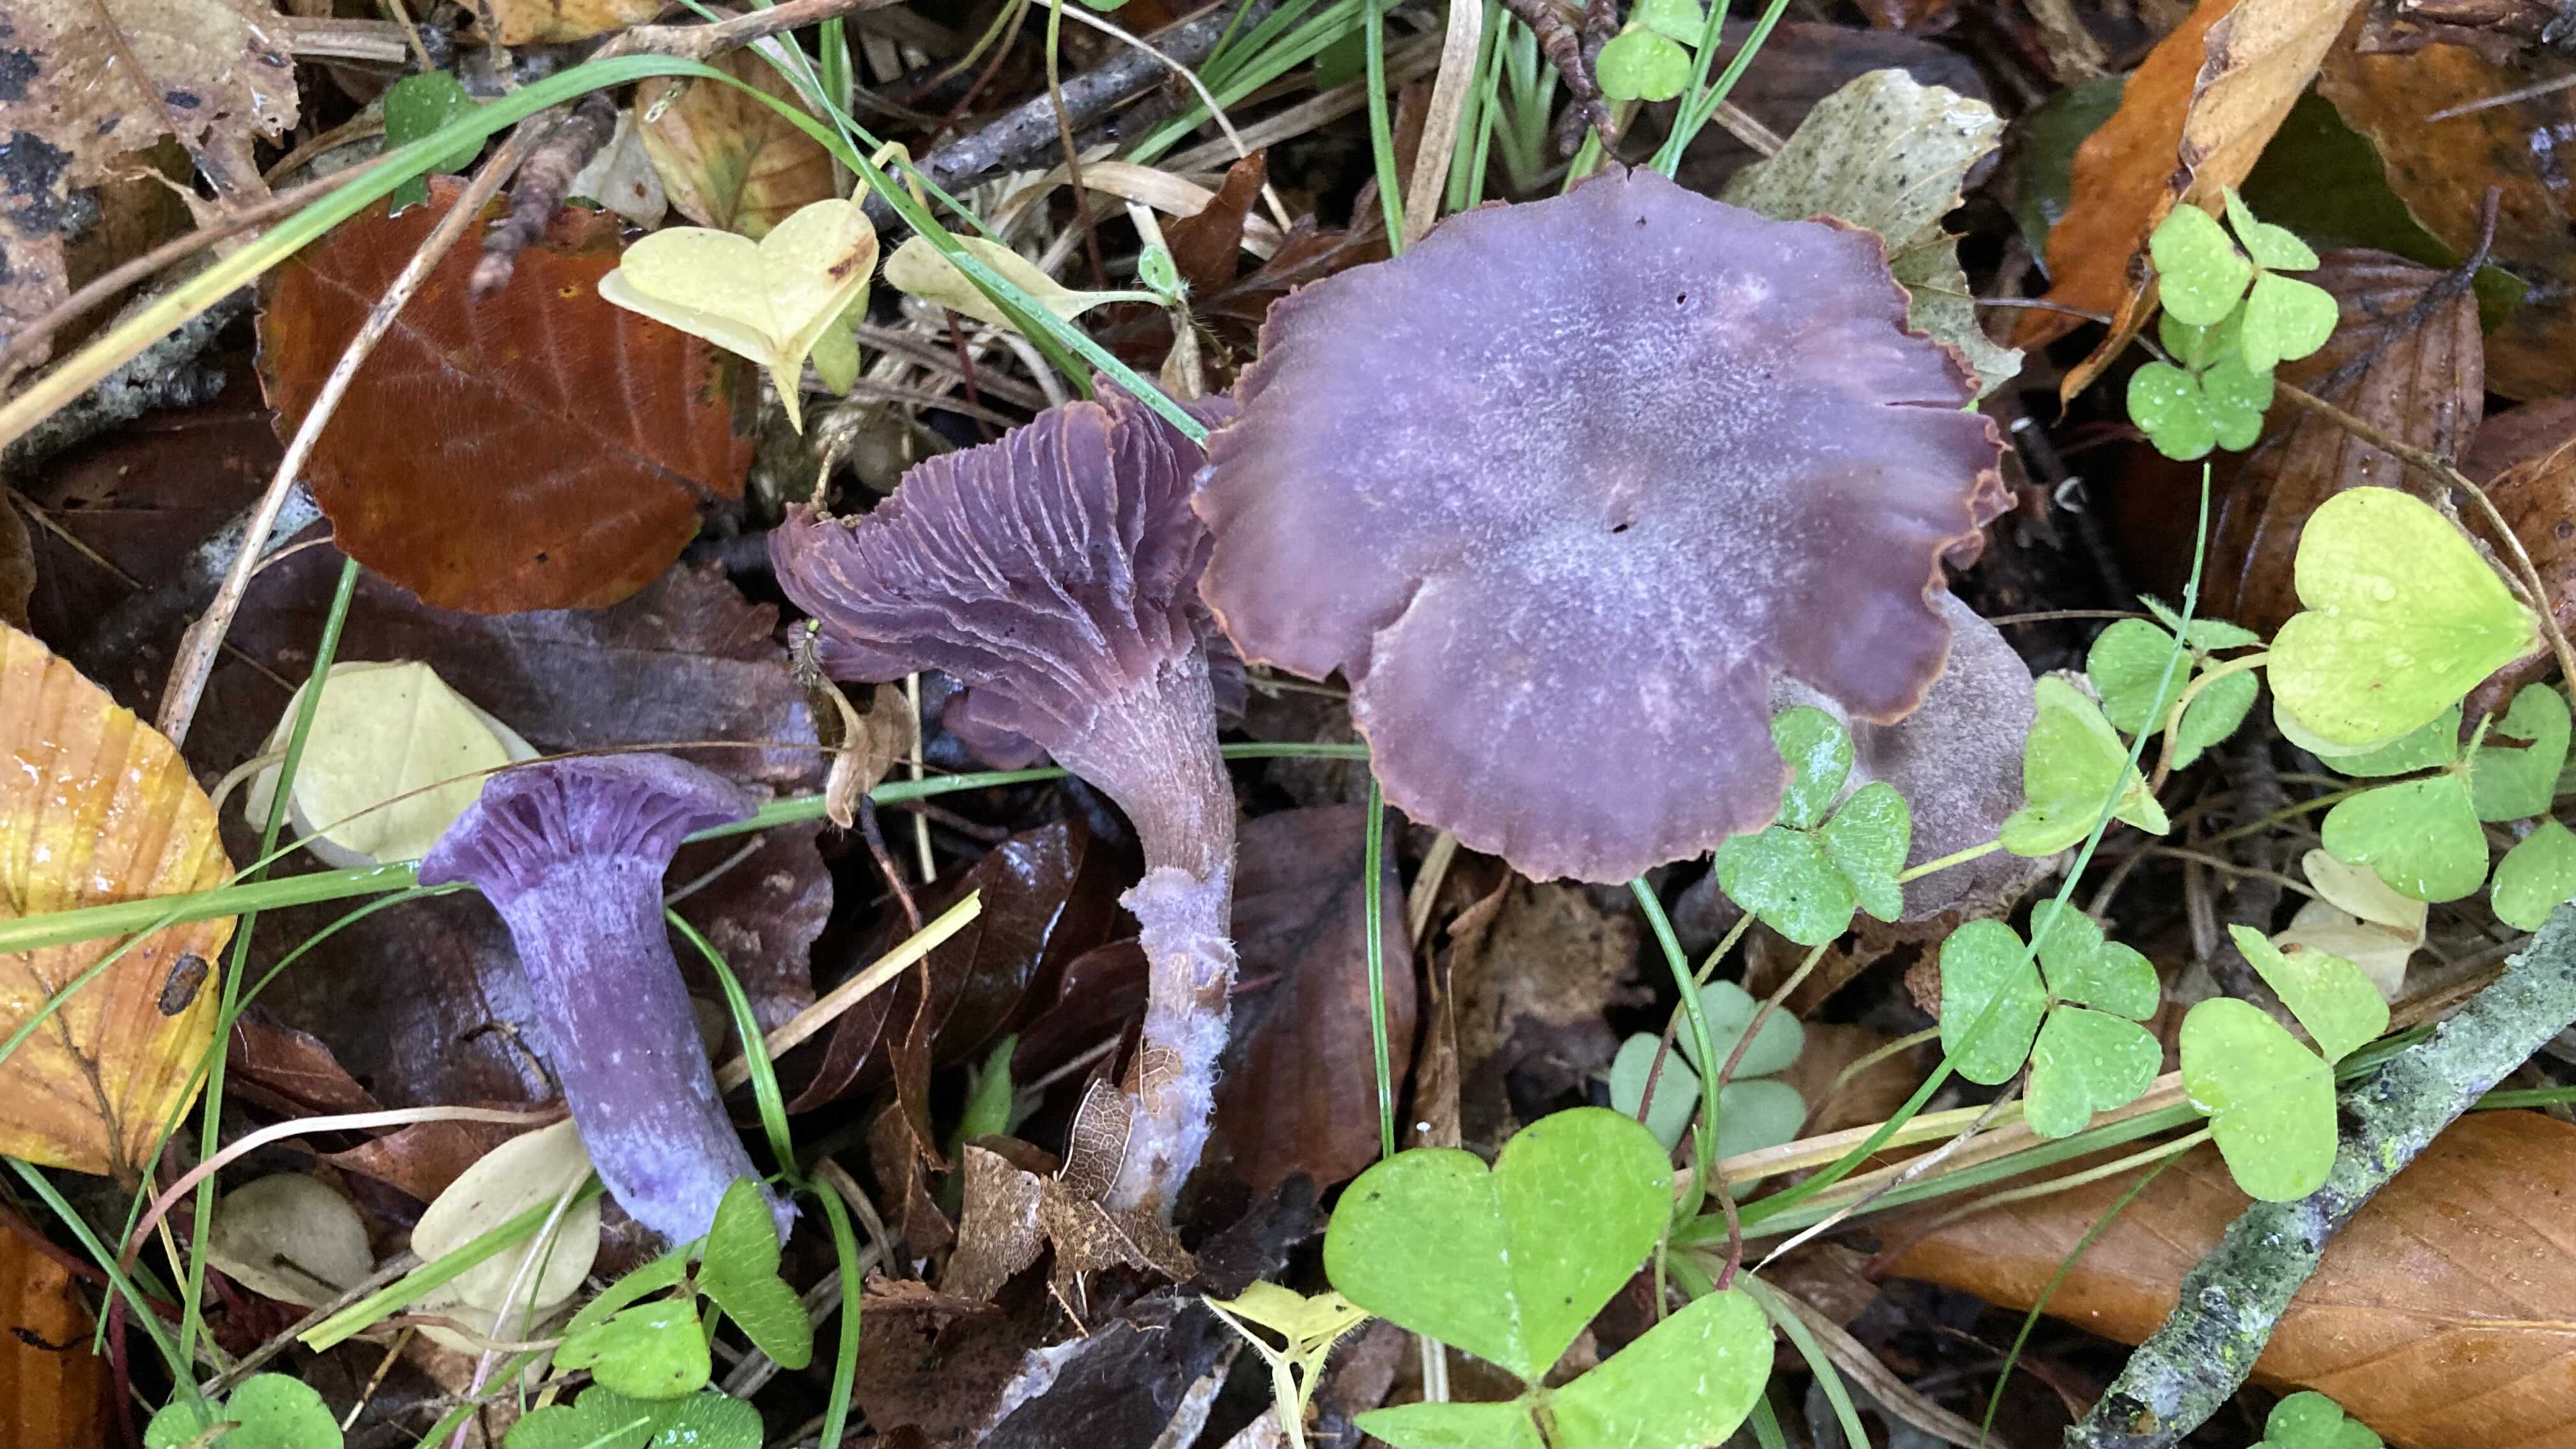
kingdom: Fungi
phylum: Basidiomycota
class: Agaricomycetes
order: Agaricales
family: Hydnangiaceae
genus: Laccaria
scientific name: Laccaria amethystina
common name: violet ametysthat
